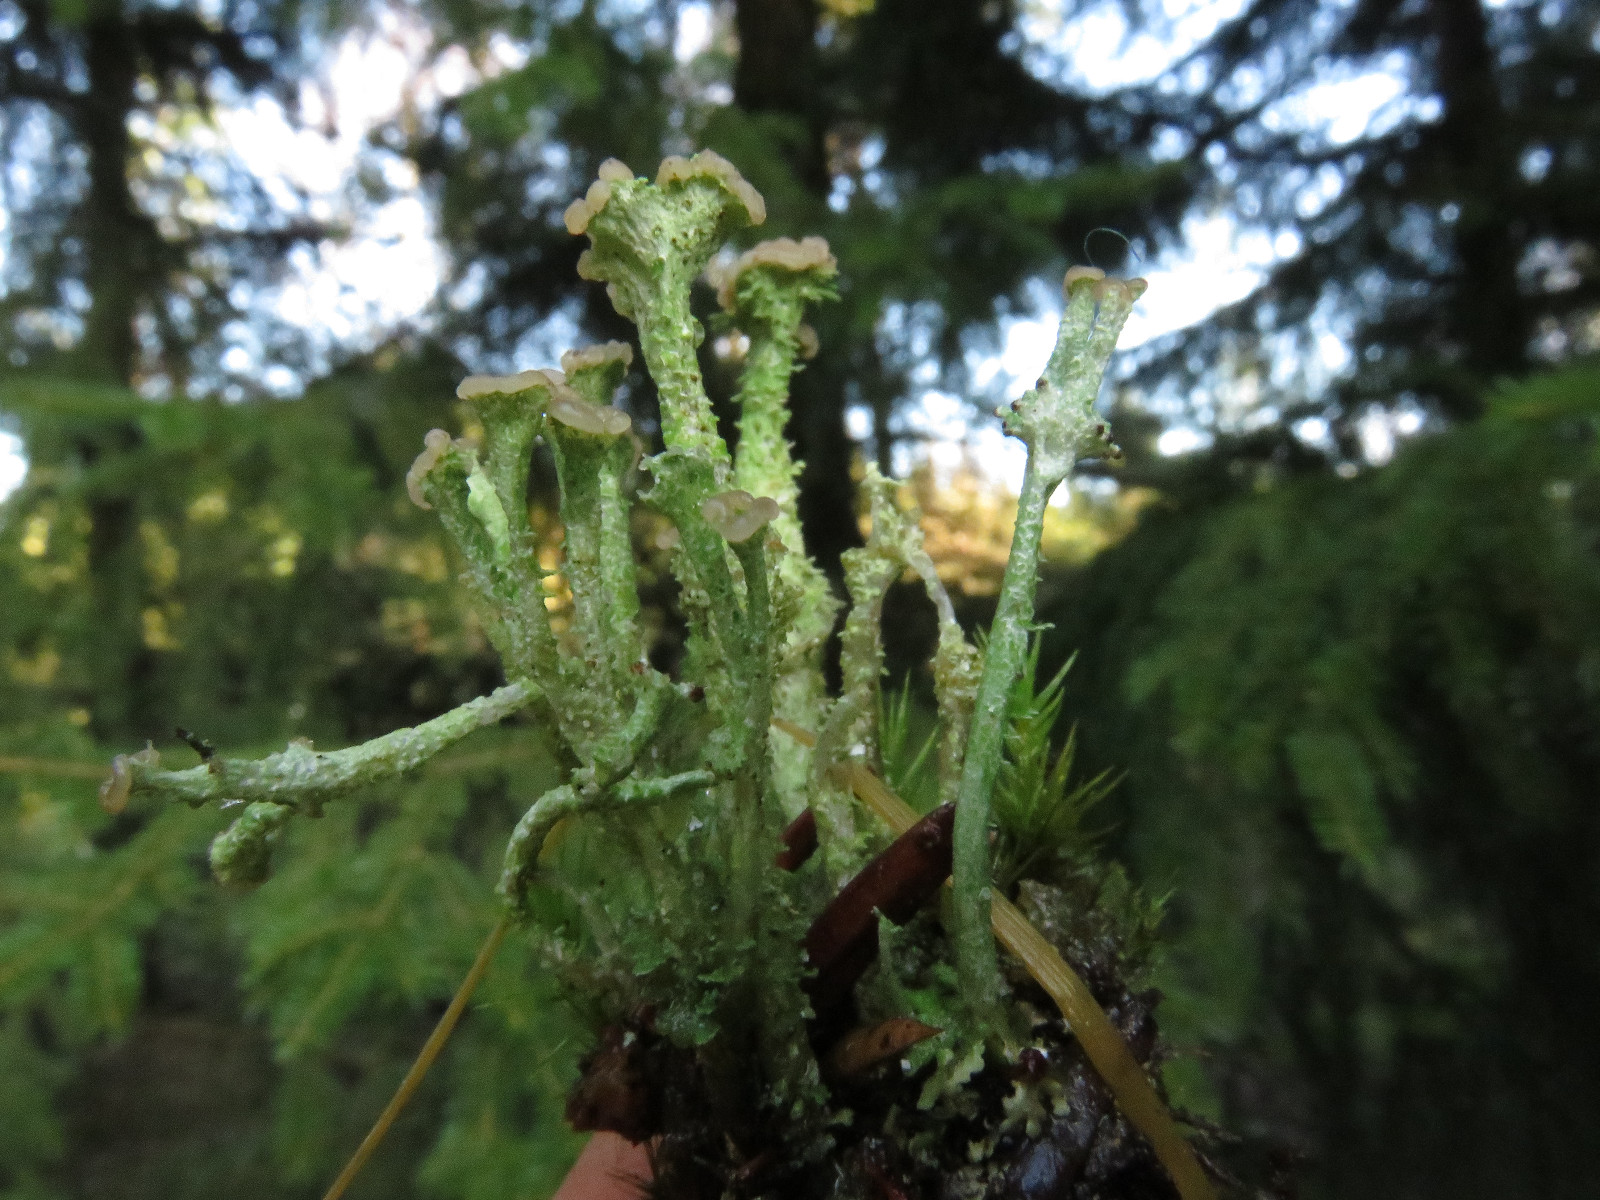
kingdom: Fungi
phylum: Ascomycota
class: Lecanoromycetes
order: Lecanorales
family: Cladoniaceae
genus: Cladonia
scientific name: Cladonia ramulosa
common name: kliddet bægerlav
